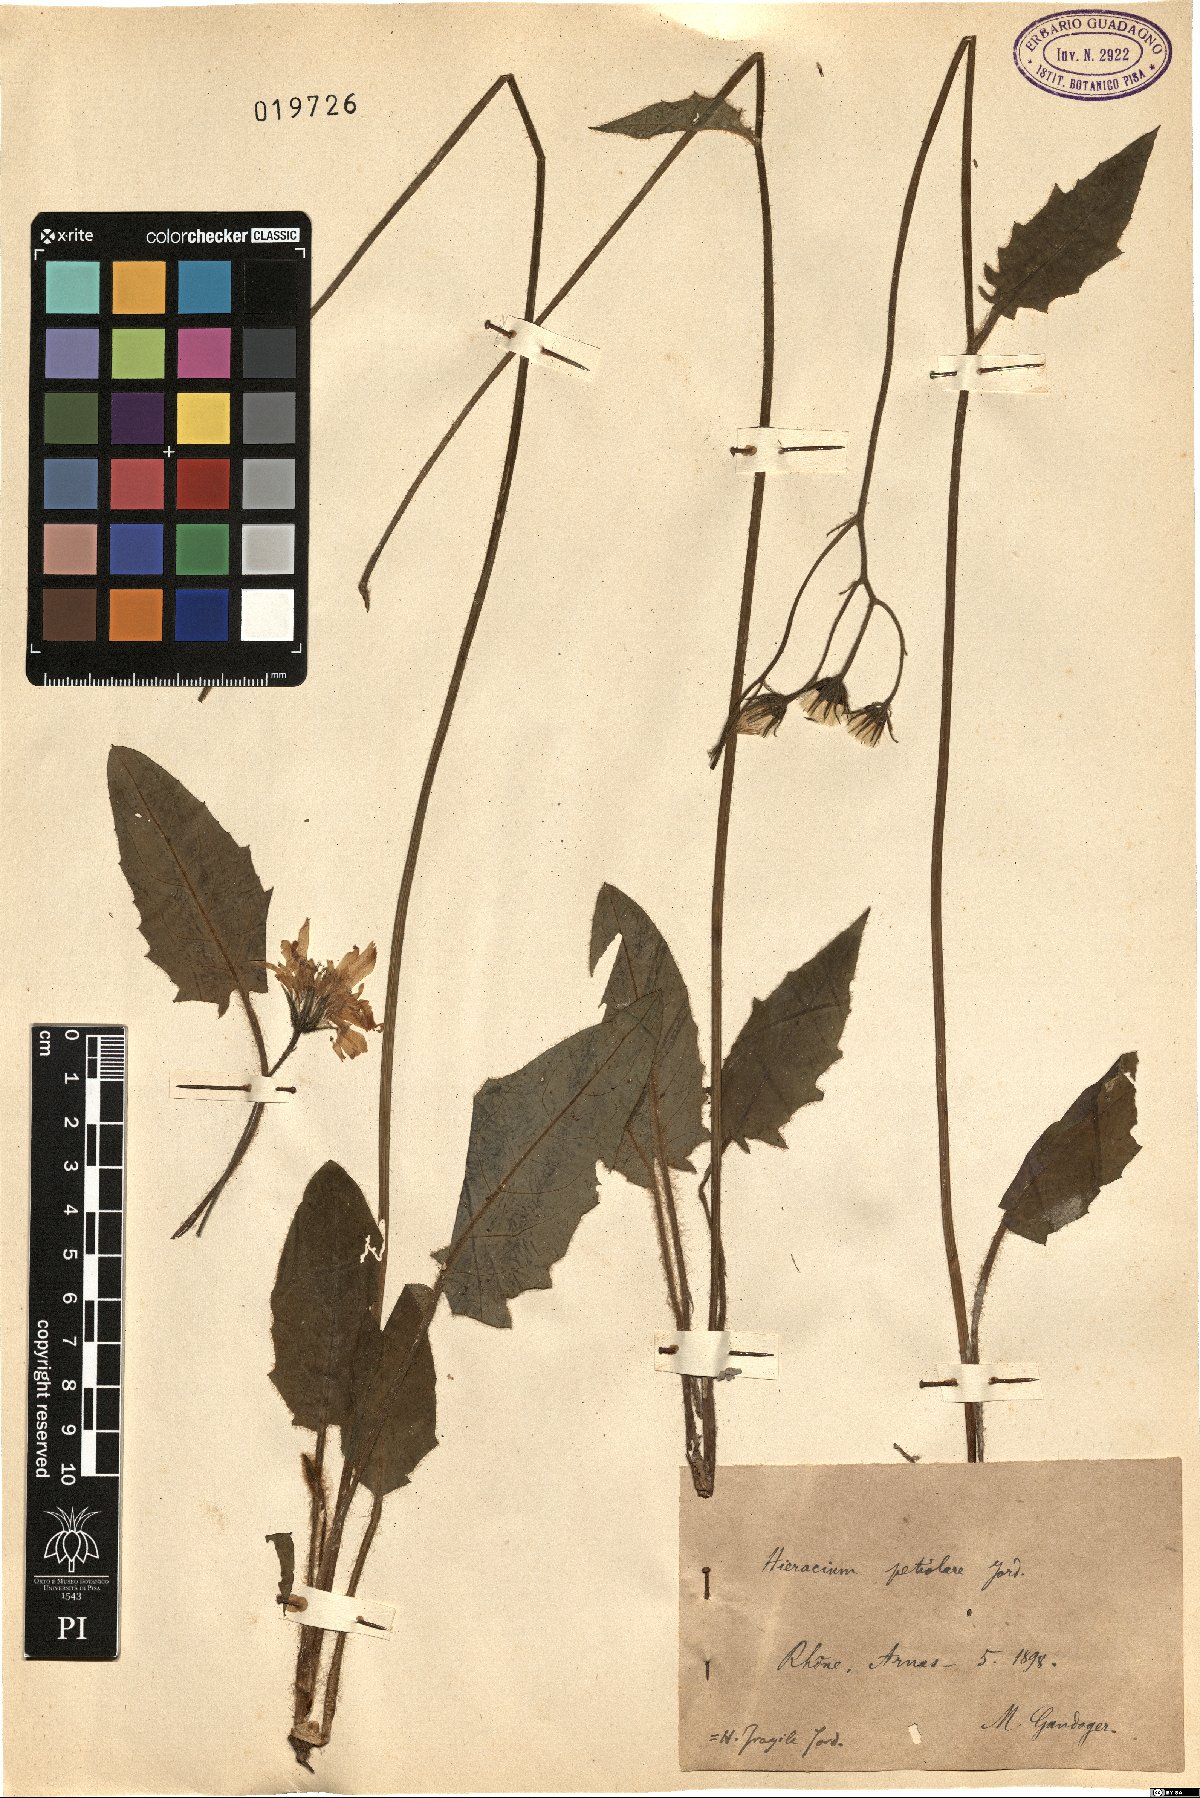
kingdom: Plantae
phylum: Tracheophyta
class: Magnoliopsida
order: Asterales
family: Asteraceae
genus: Hieracium
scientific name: Hieracium glaucinum
